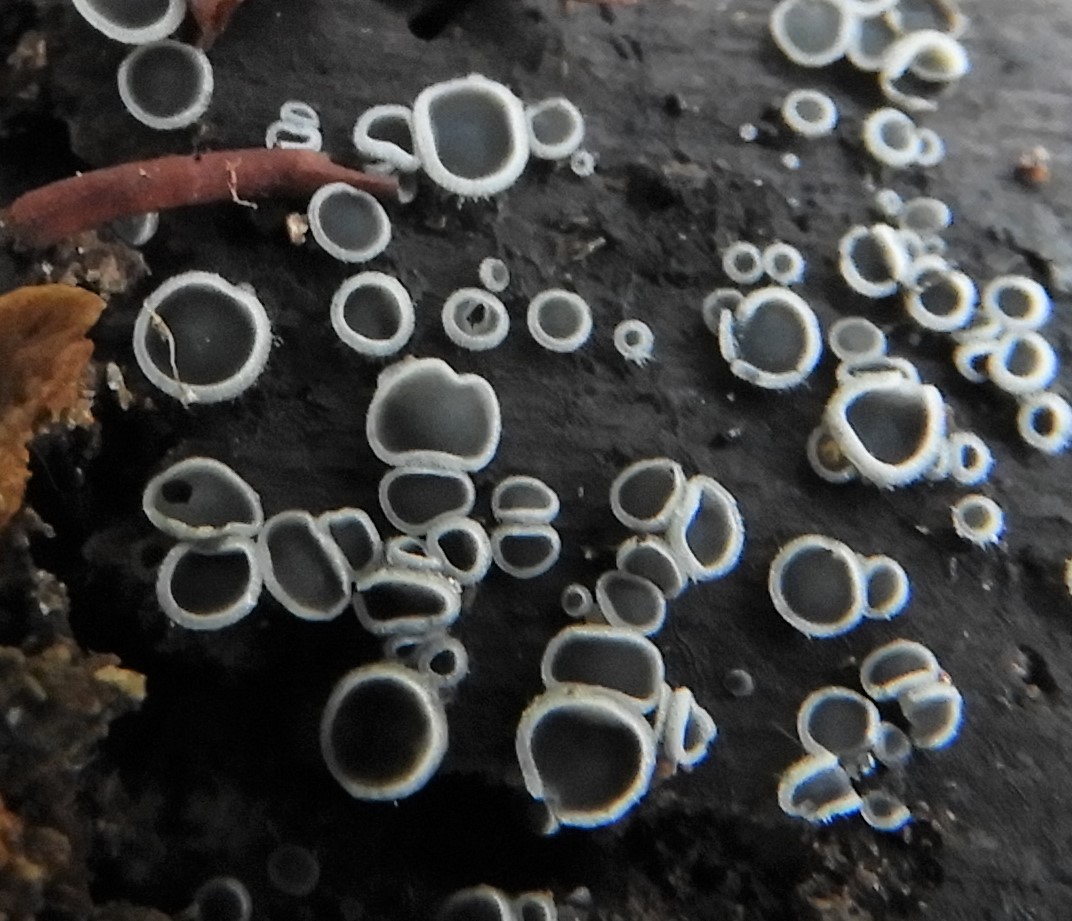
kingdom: Fungi
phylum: Ascomycota
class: Leotiomycetes
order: Helotiales
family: Mollisiaceae
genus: Mollisia
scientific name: Mollisia
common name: gråskive
